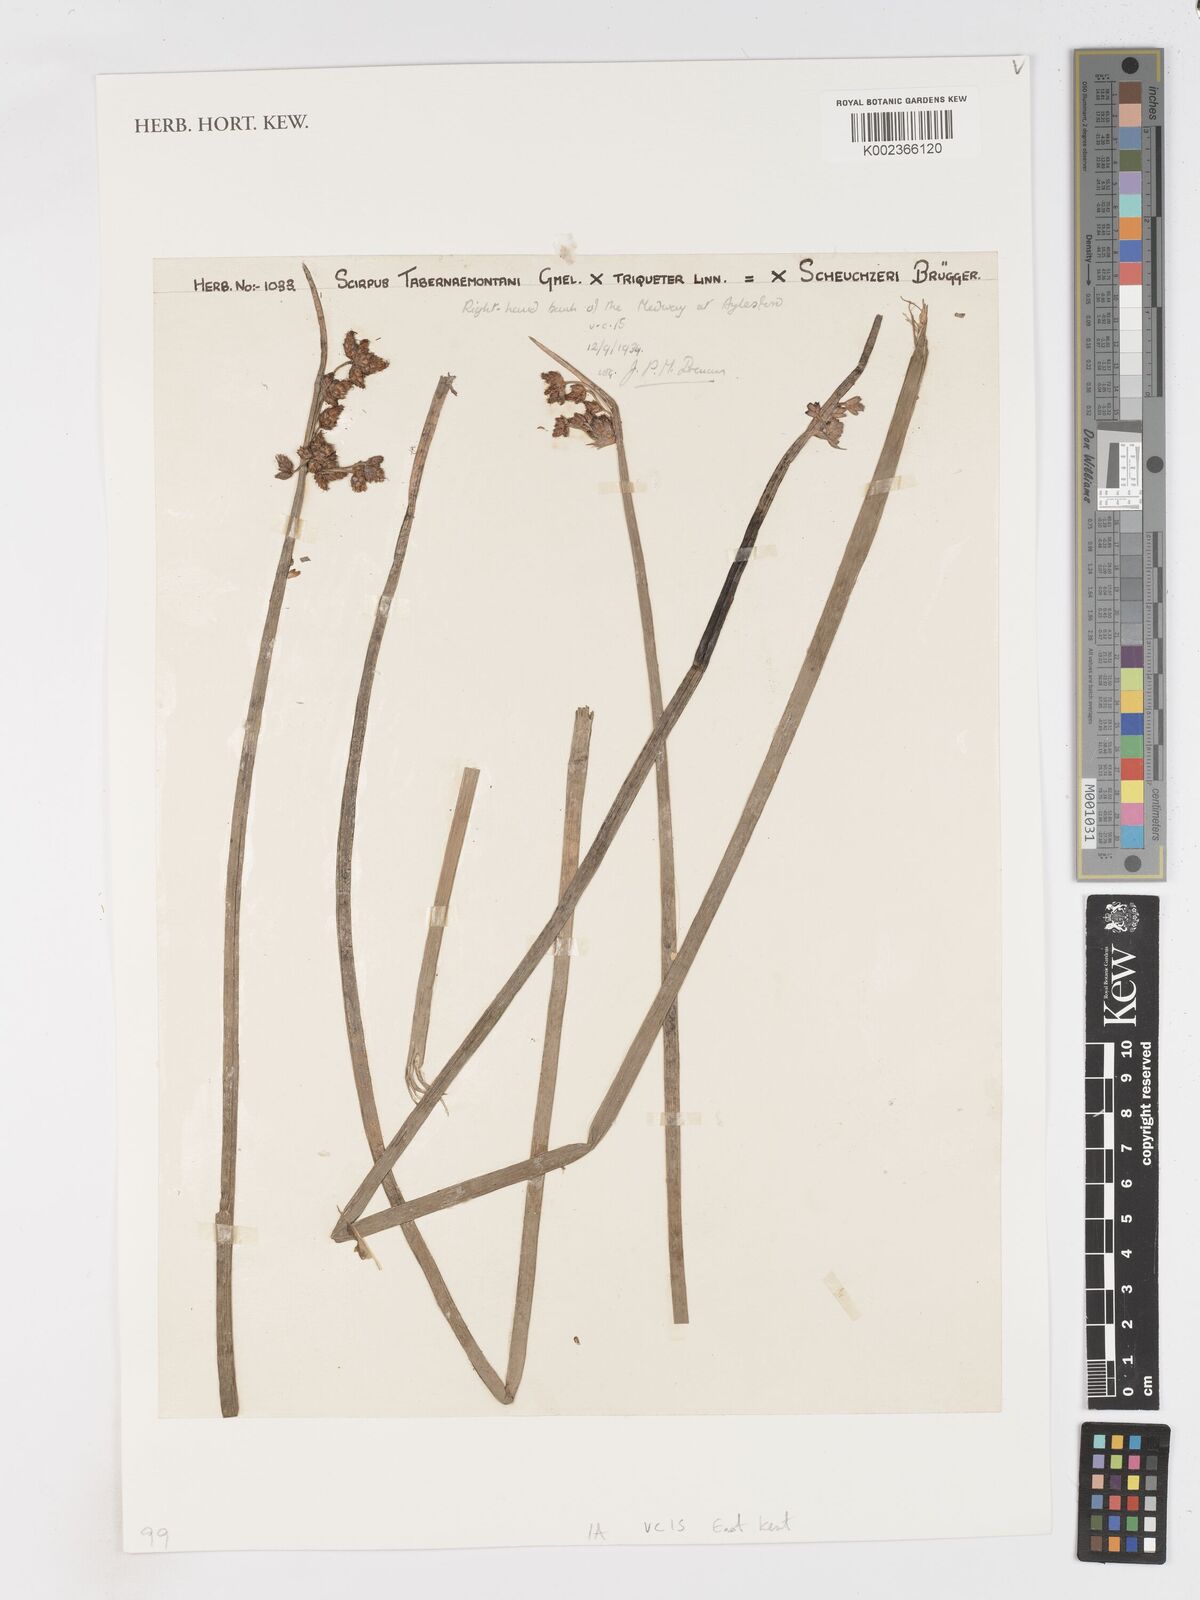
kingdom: Plantae
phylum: Tracheophyta
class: Liliopsida
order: Poales
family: Cyperaceae
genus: Schoenoplectus
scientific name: Schoenoplectus triqueter
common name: Triangular club-rush
